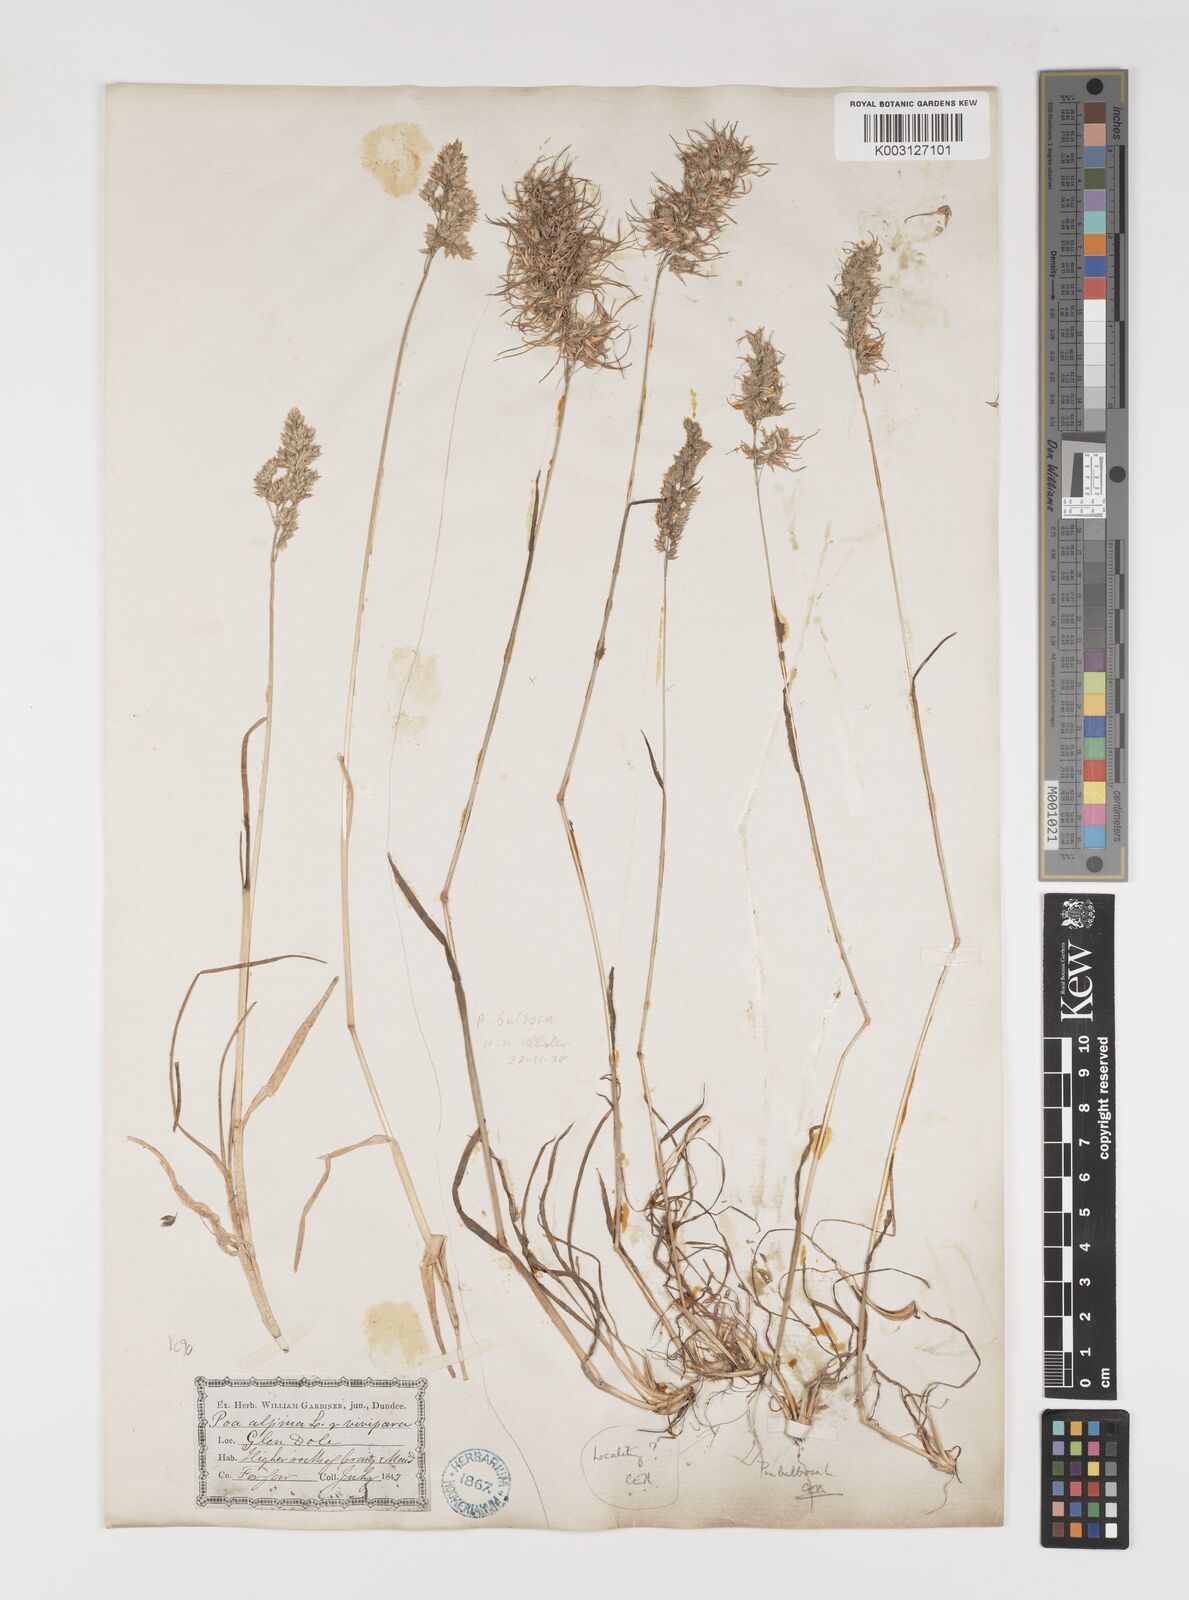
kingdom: Plantae
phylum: Tracheophyta
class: Liliopsida
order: Poales
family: Poaceae
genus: Poa
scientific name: Poa alpina
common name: Alpine bluegrass
